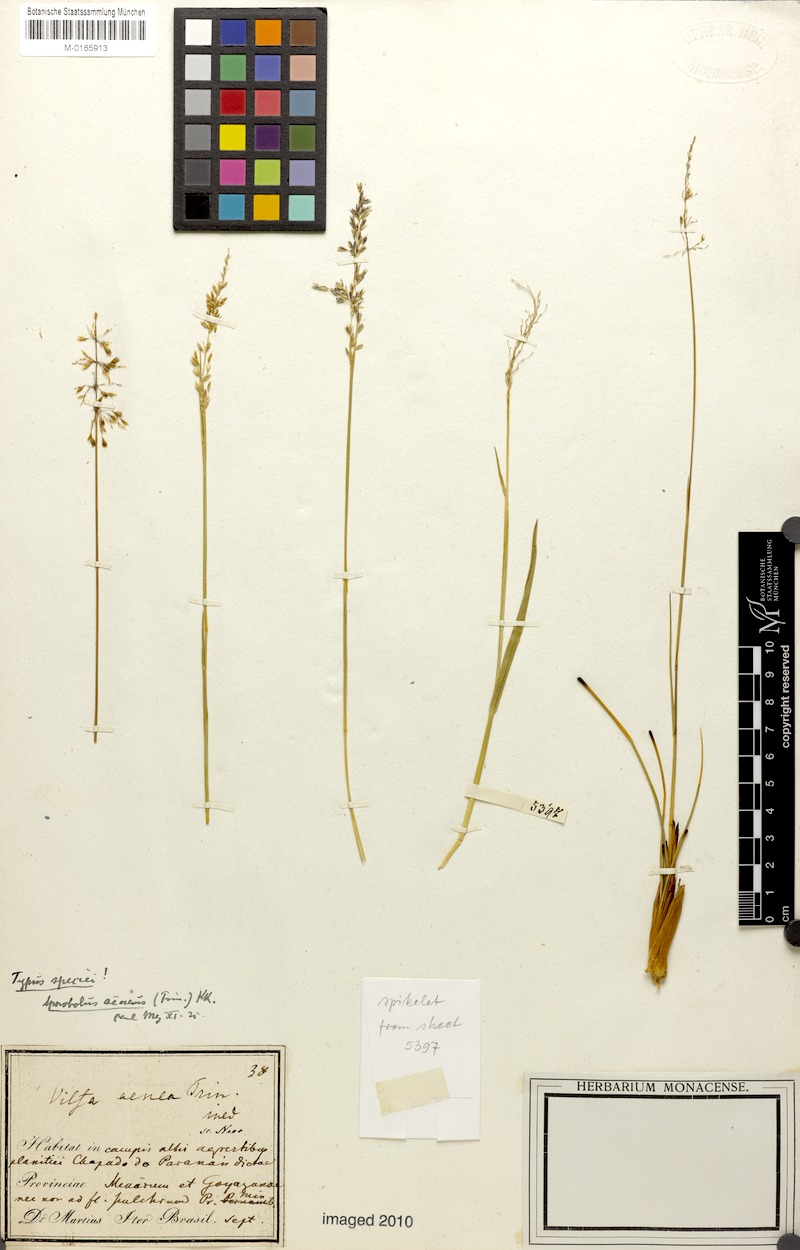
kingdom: Plantae
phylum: Tracheophyta
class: Liliopsida
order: Poales
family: Poaceae
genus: Sporobolus
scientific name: Sporobolus aeneus
